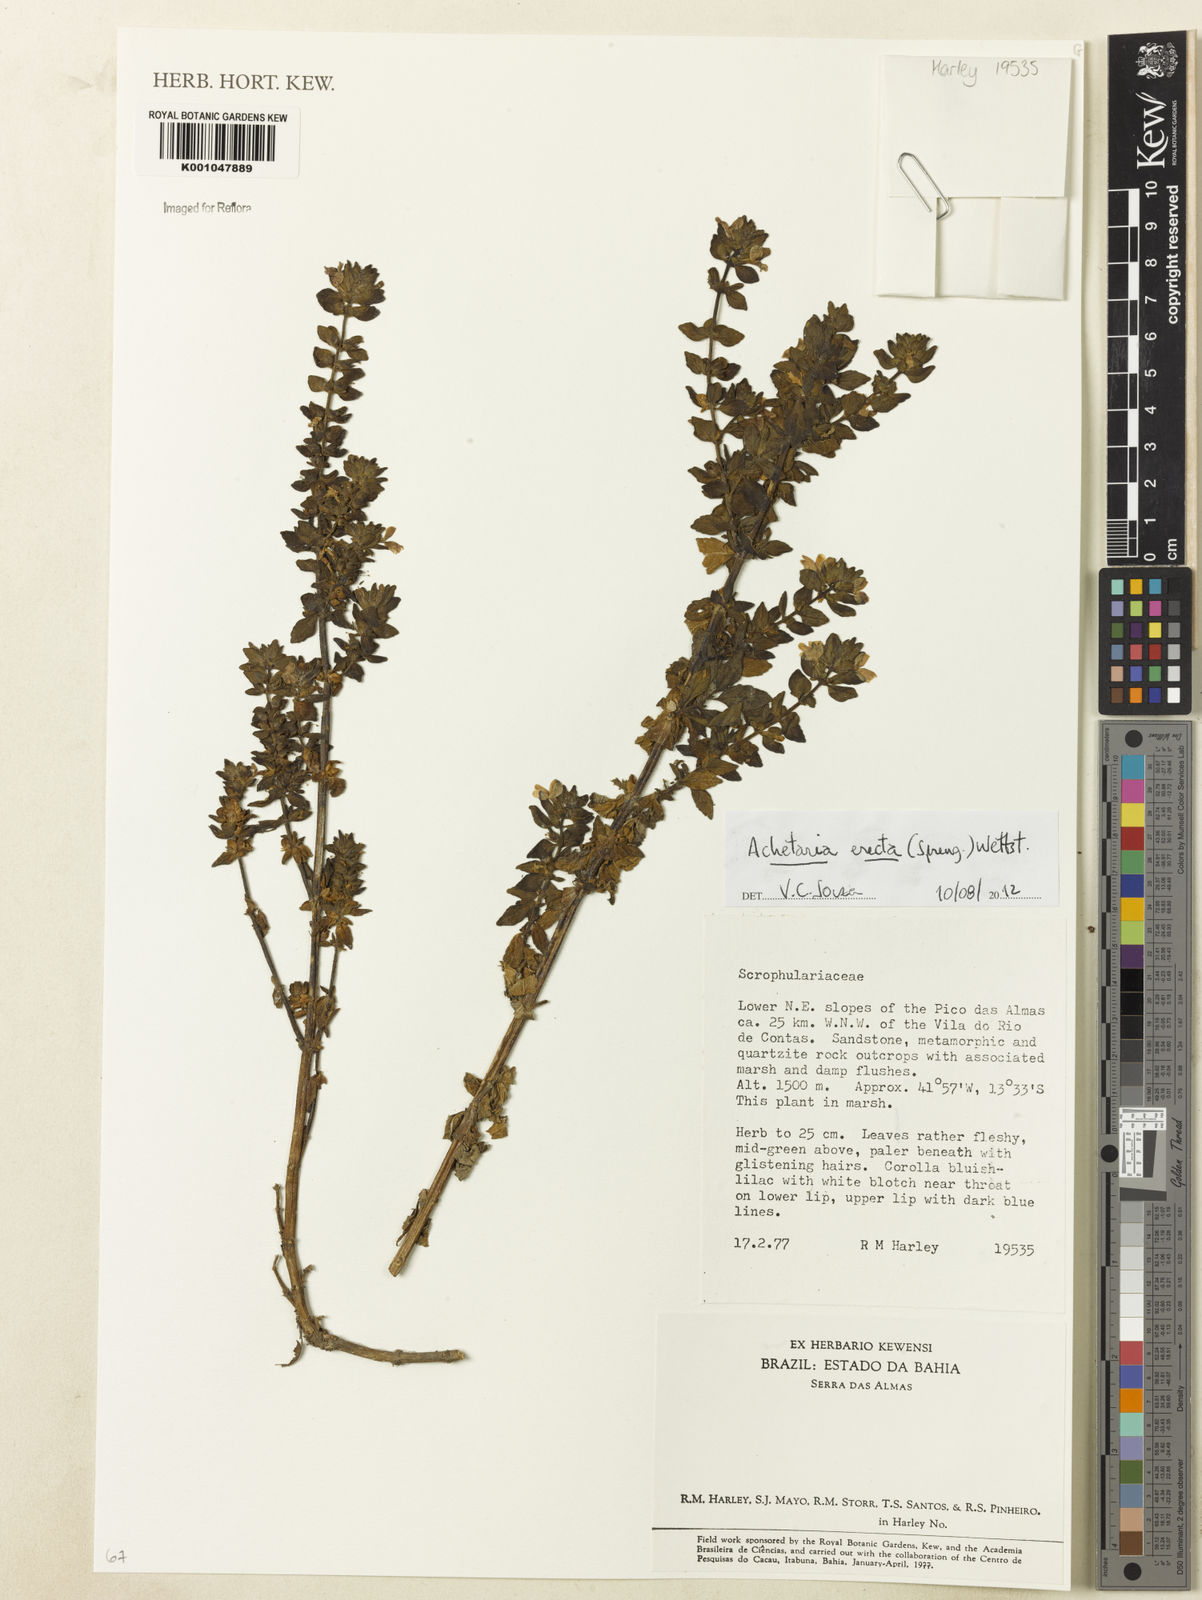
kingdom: Plantae
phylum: Tracheophyta
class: Magnoliopsida
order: Lamiales
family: Plantaginaceae
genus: Matourea
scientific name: Matourea erecta
